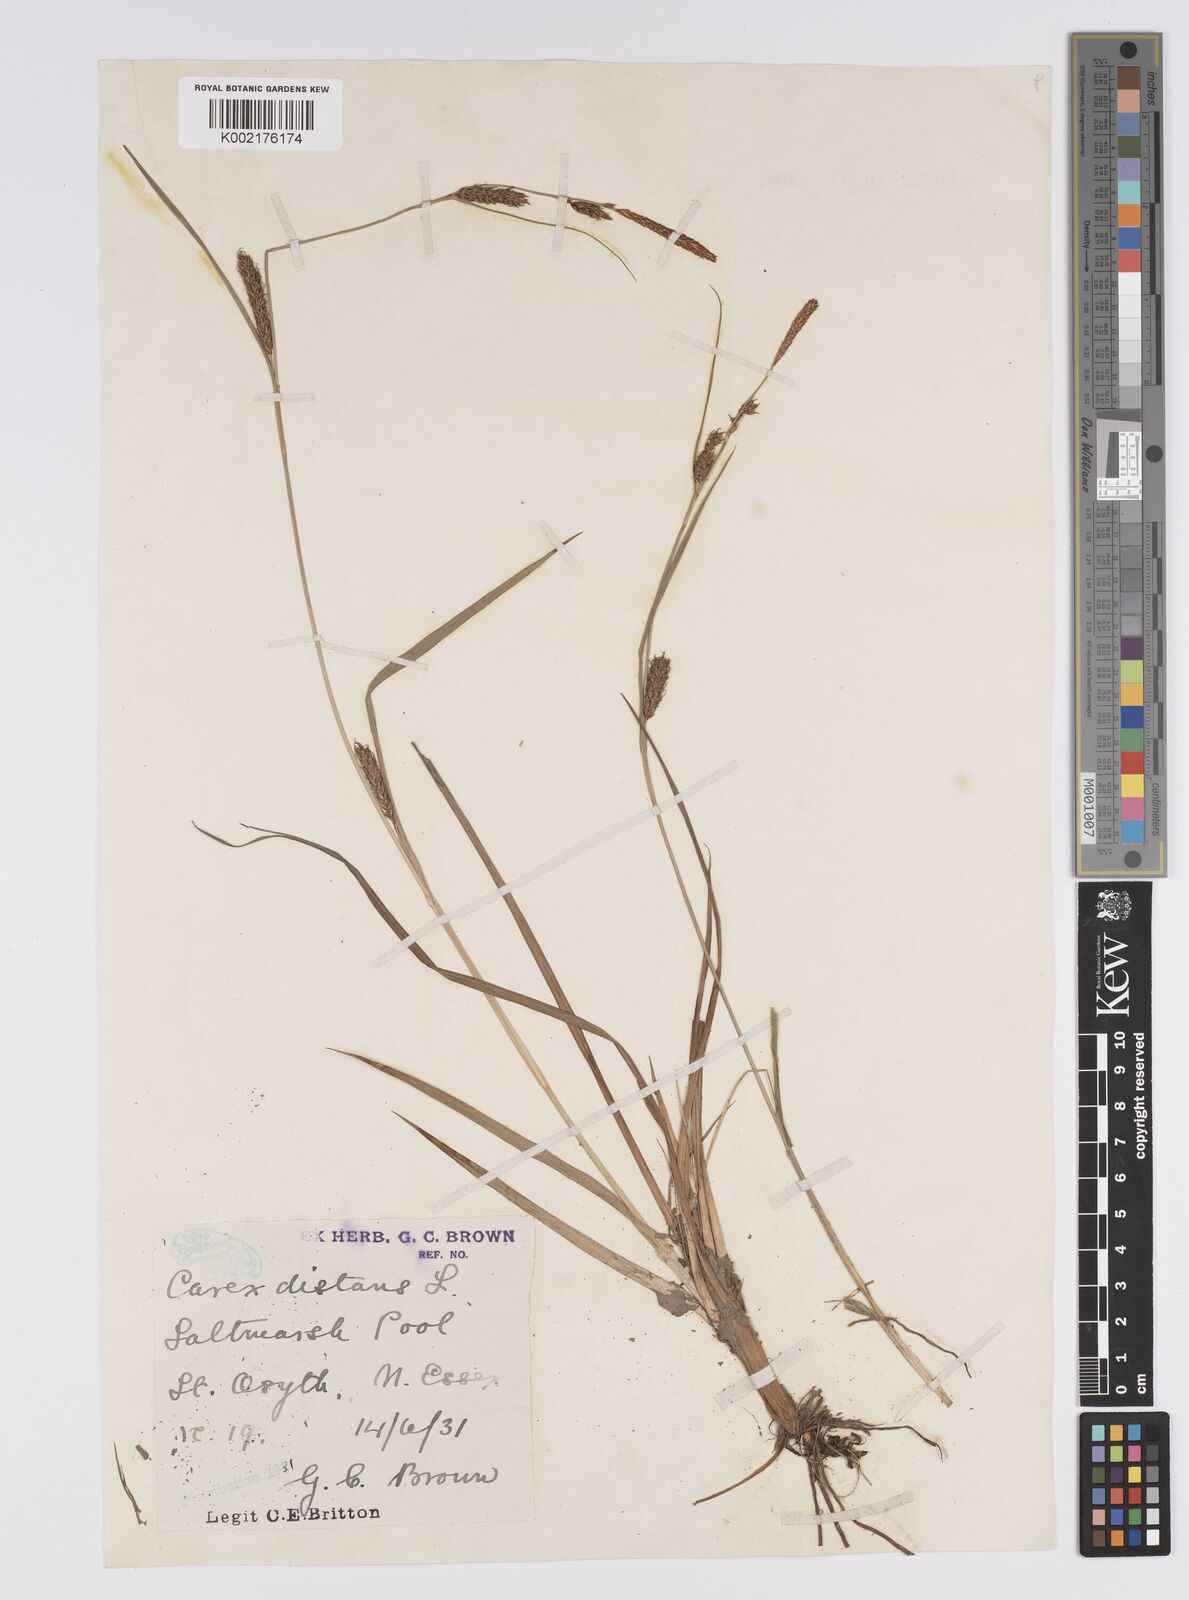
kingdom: Plantae
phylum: Tracheophyta
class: Liliopsida
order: Poales
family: Cyperaceae
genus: Carex
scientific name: Carex distans
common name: Distant sedge
